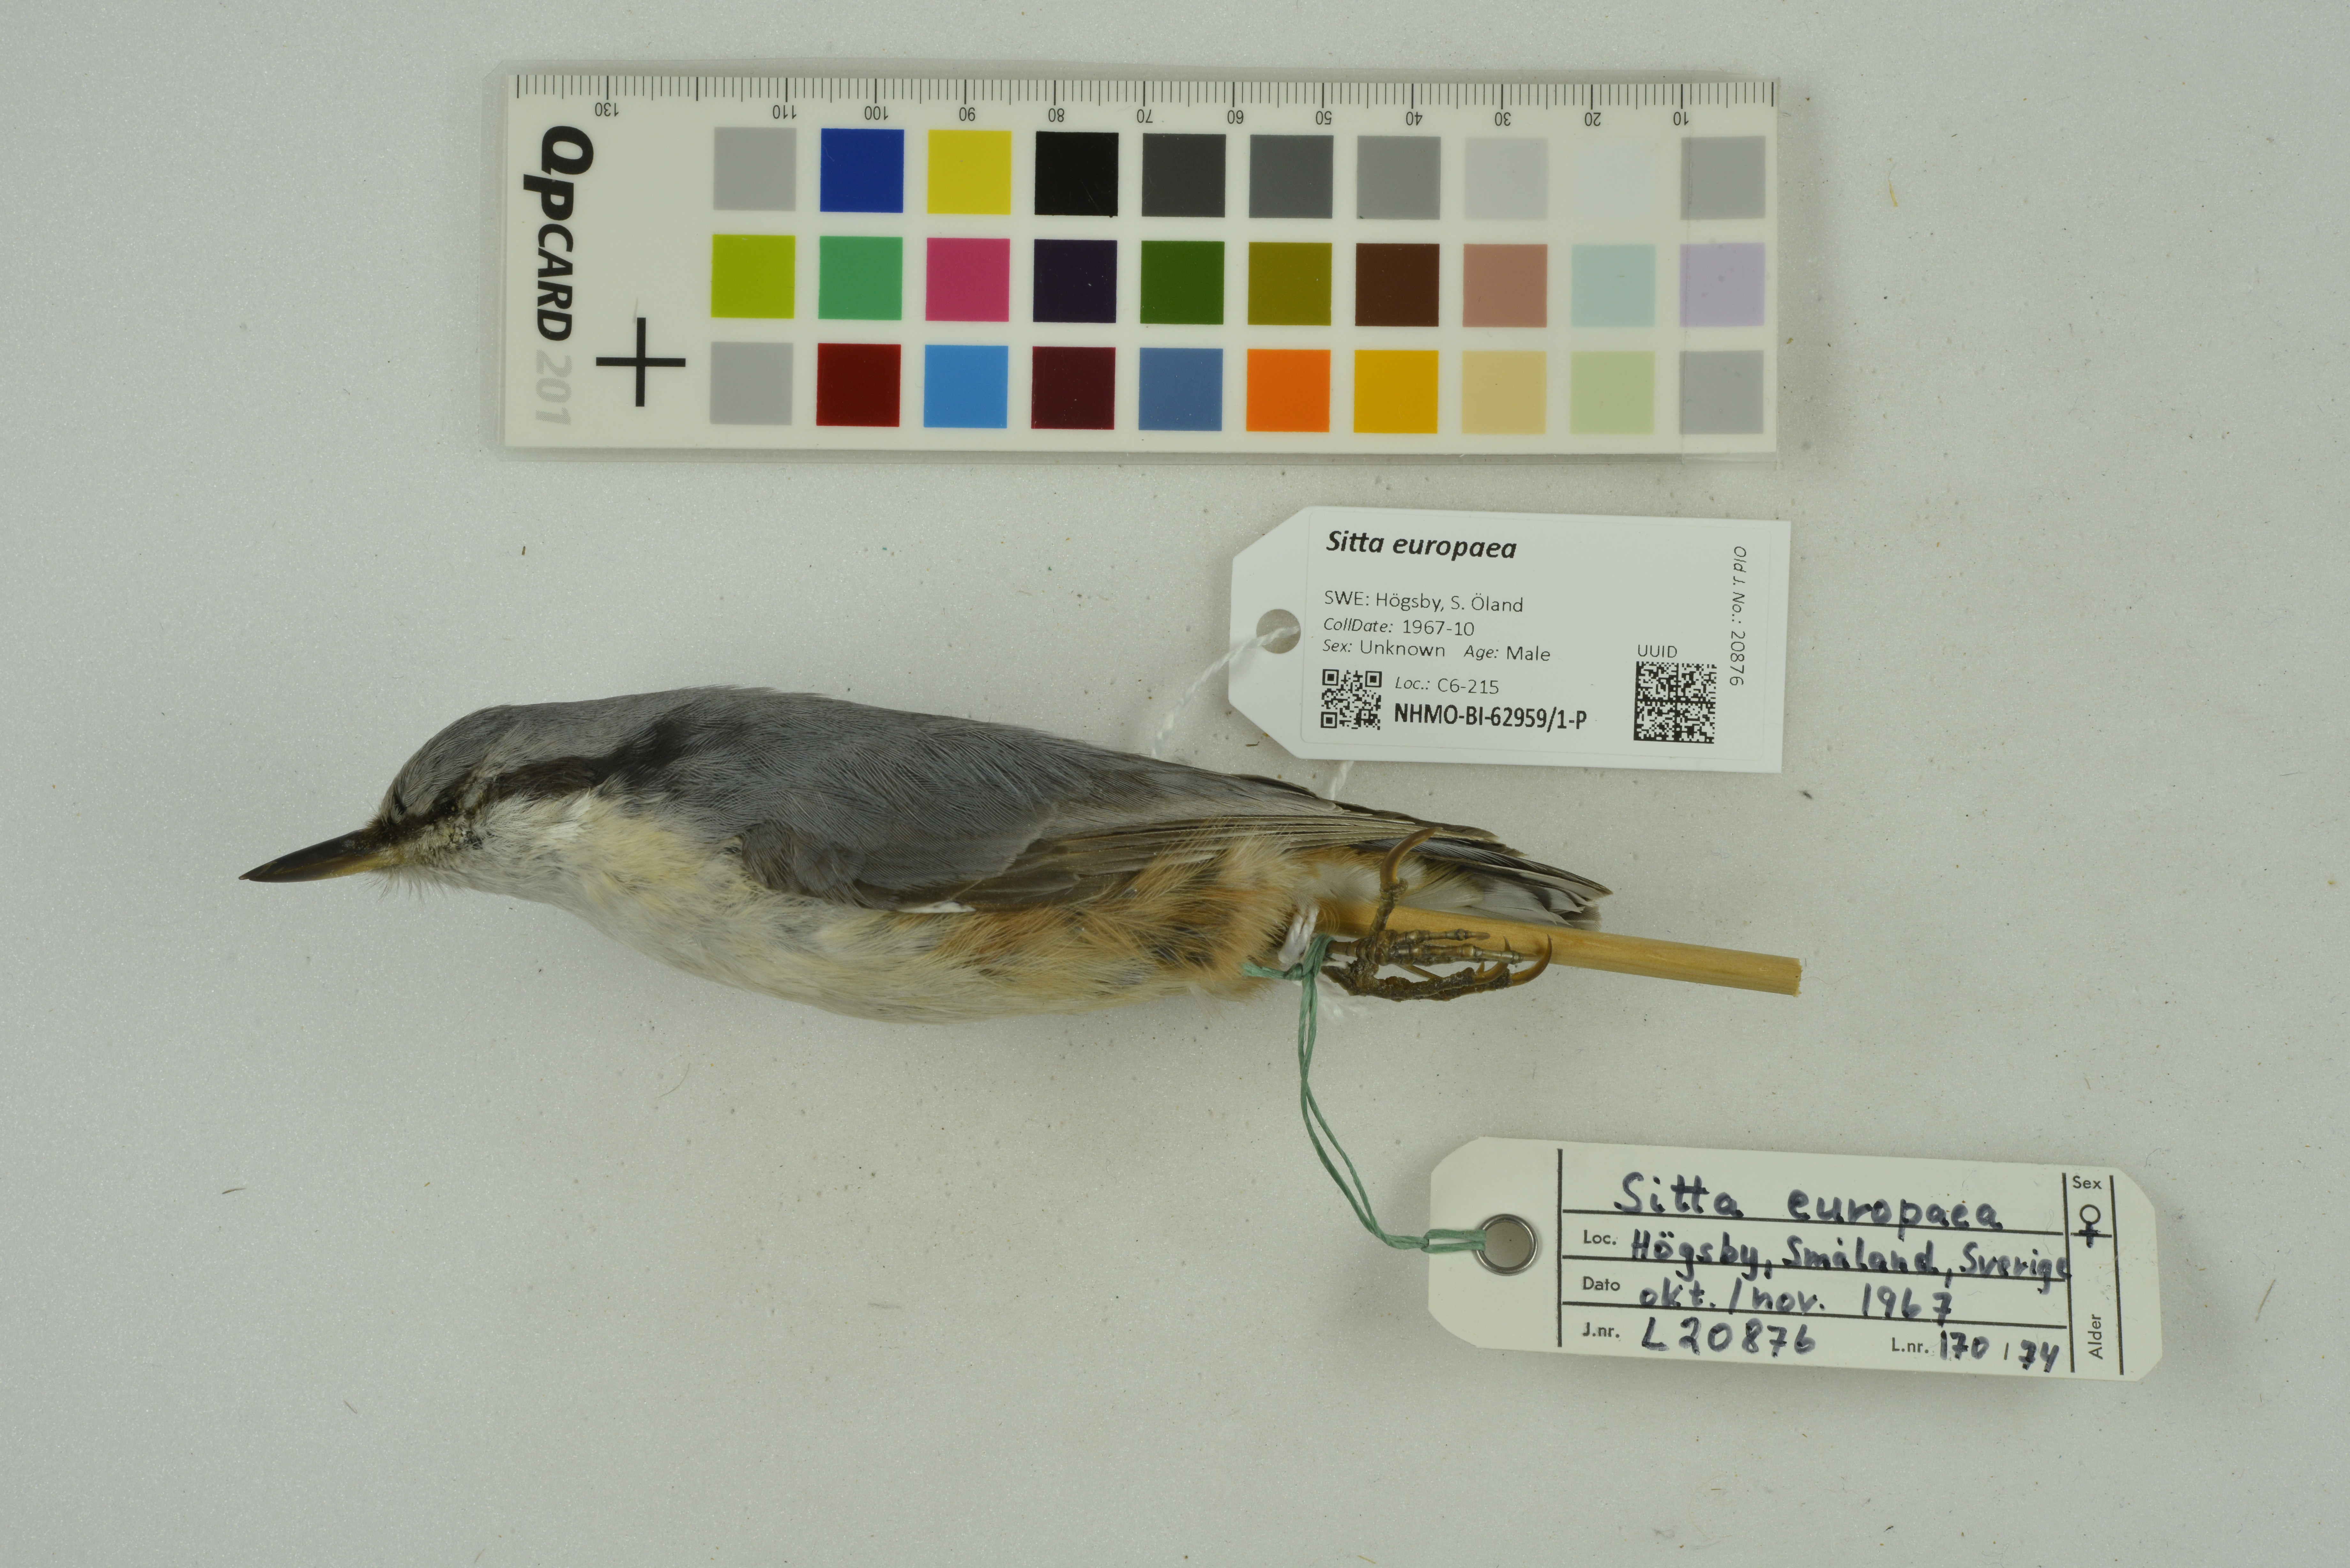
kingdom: Animalia
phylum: Chordata
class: Aves
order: Passeriformes
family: Sittidae
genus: Sitta
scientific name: Sitta europaea
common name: Eurasian nuthatch
